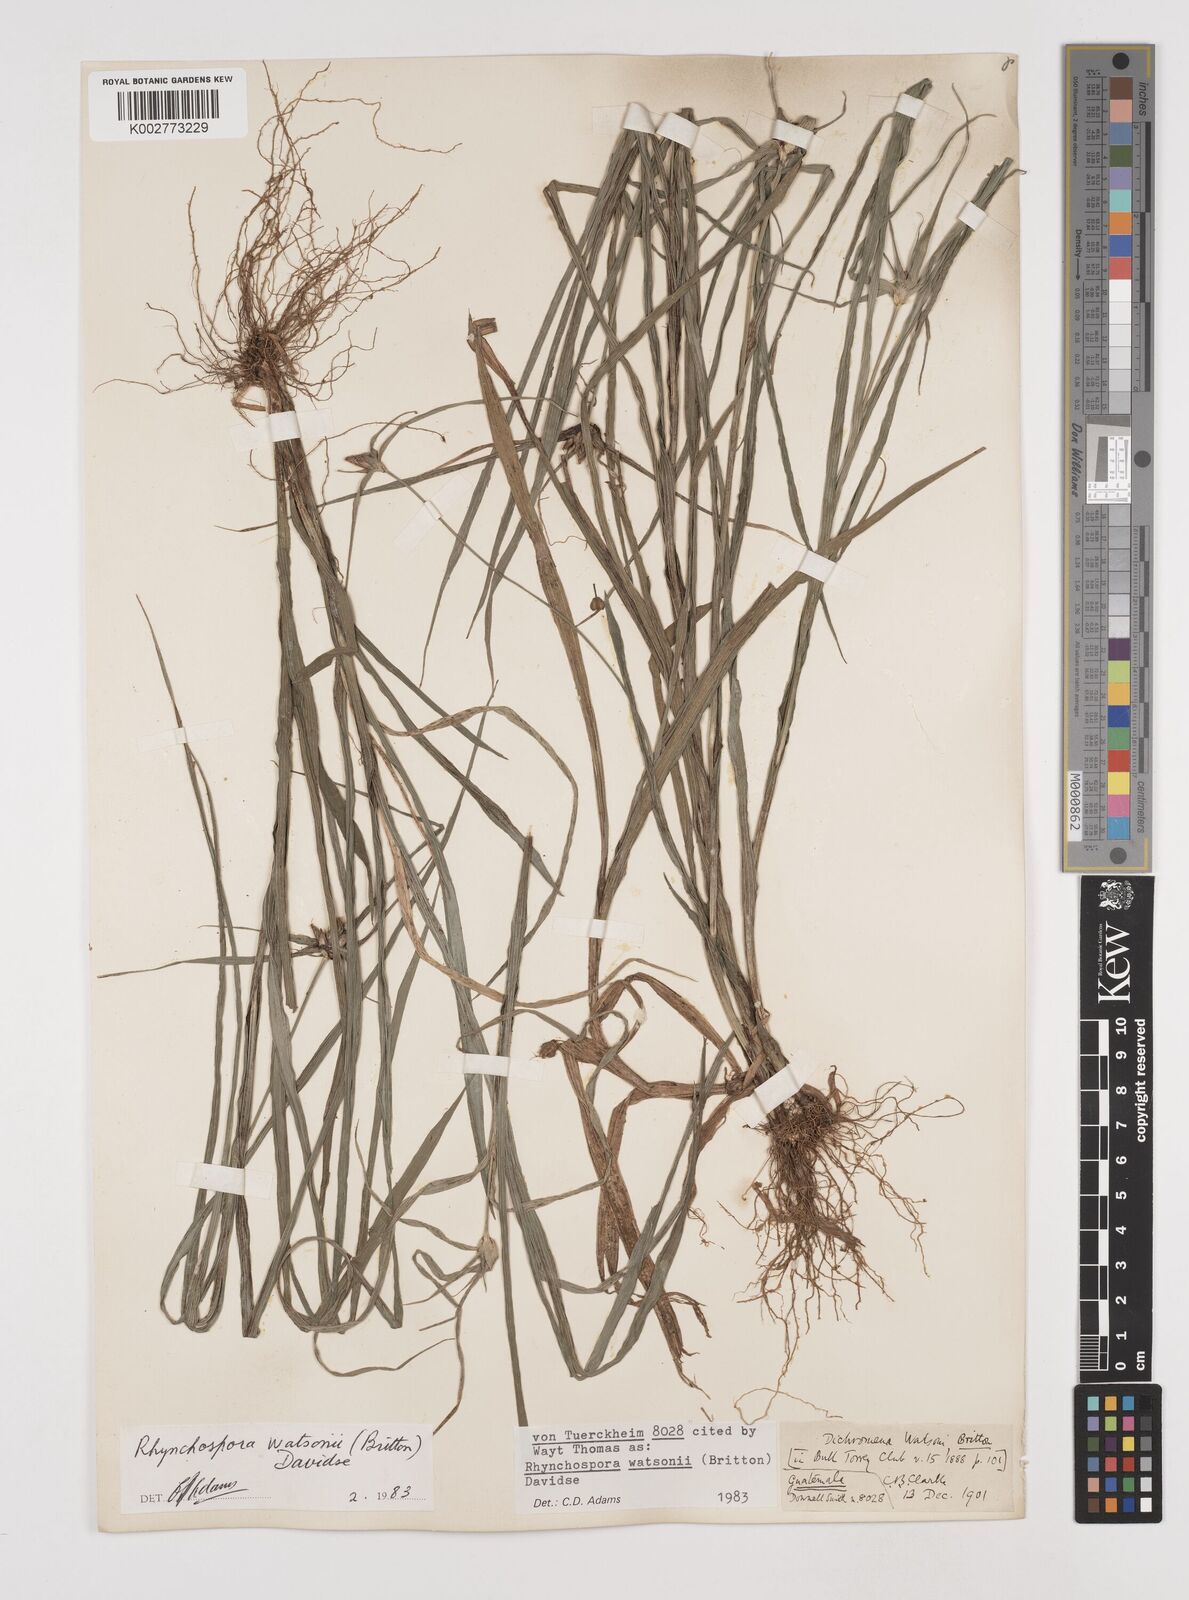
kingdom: Plantae
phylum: Tracheophyta
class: Liliopsida
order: Poales
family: Cyperaceae
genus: Rhynchospora
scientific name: Rhynchospora watsonii
